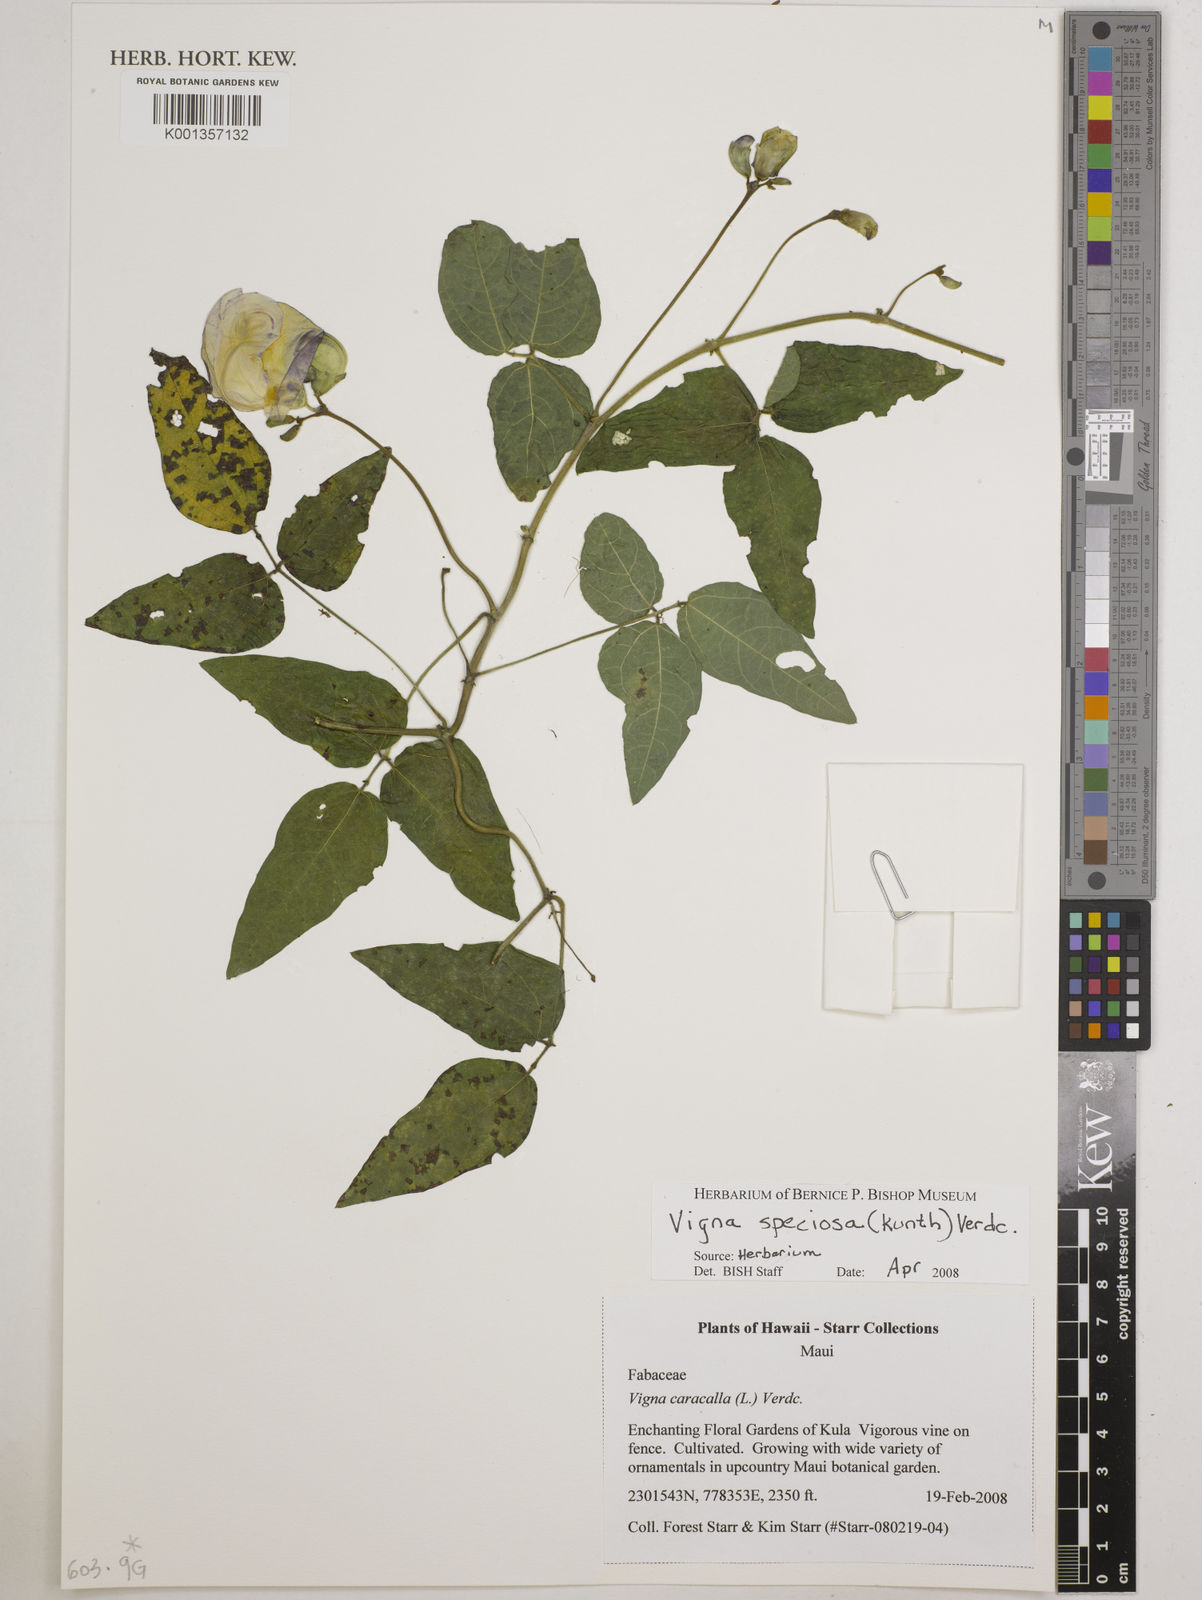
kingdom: Plantae
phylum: Tracheophyta
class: Magnoliopsida
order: Fabales
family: Fabaceae
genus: Sigmoidotropis
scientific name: Sigmoidotropis speciosa
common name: Snail flower
